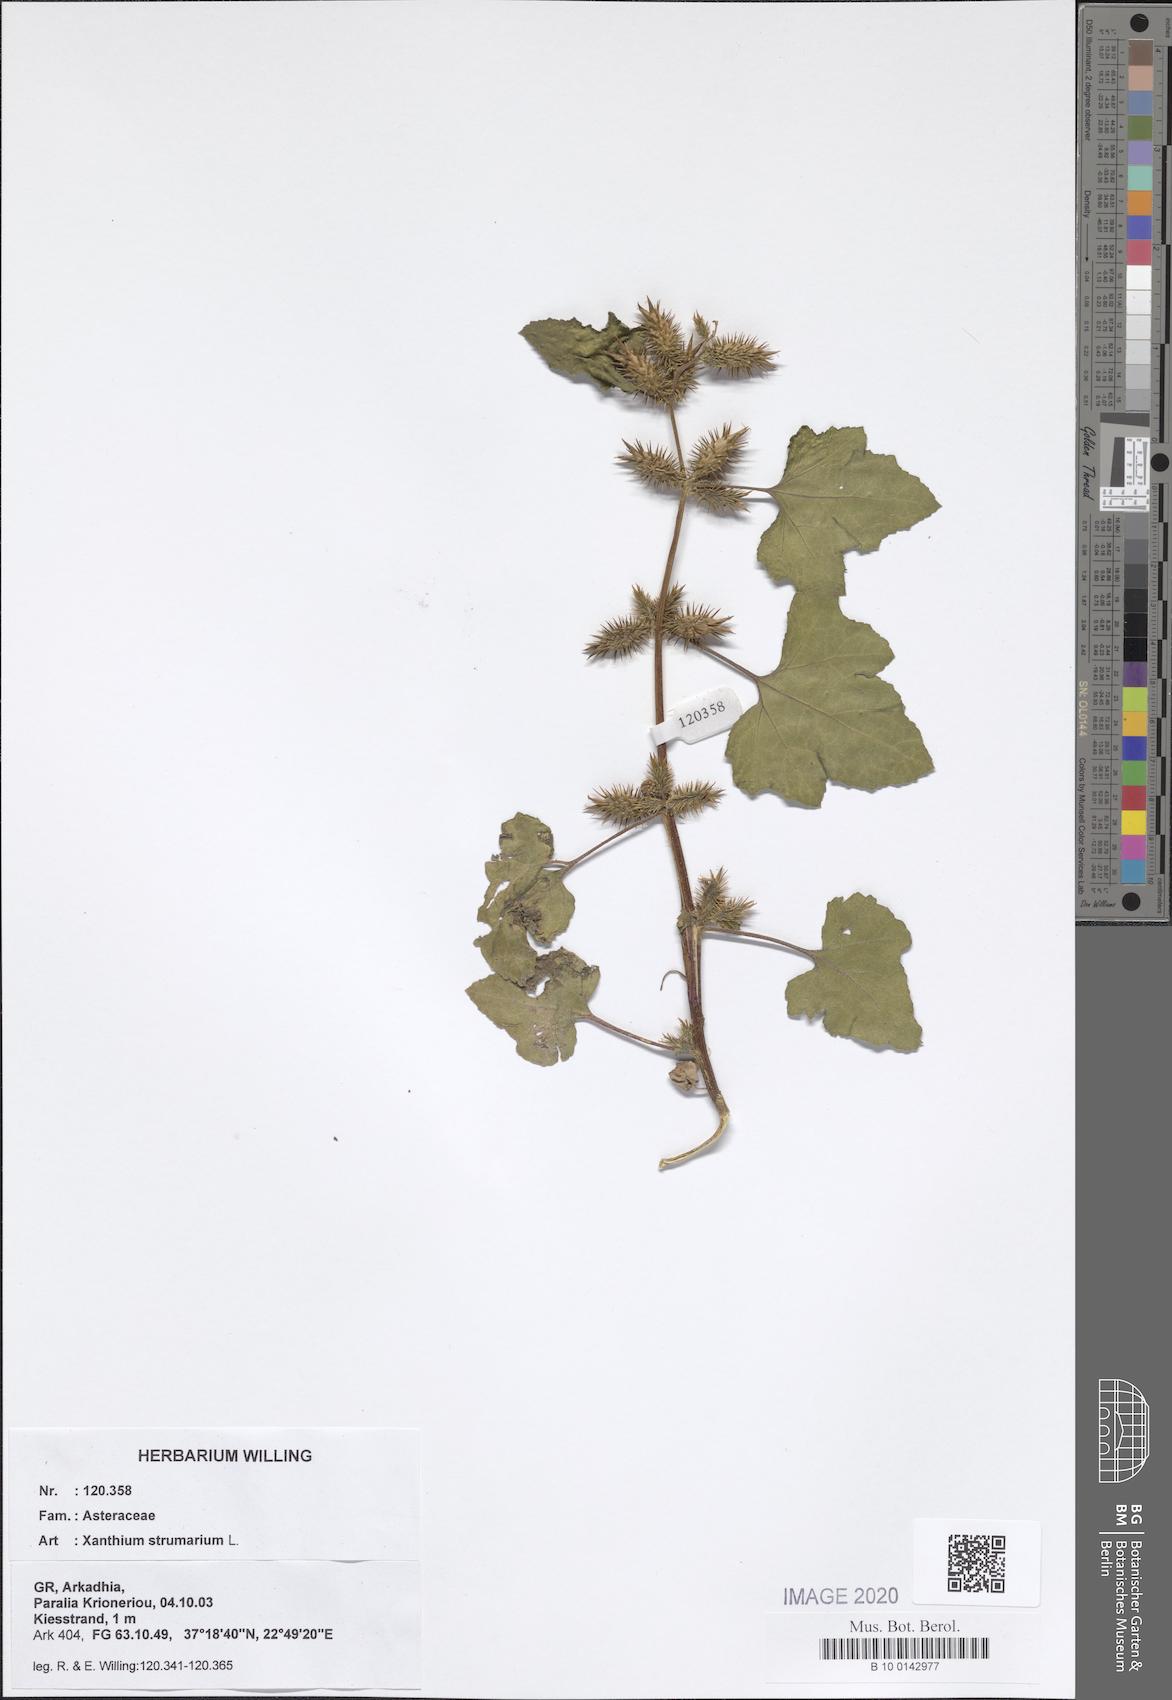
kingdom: Plantae
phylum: Tracheophyta
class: Magnoliopsida
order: Asterales
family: Asteraceae
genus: Xanthium
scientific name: Xanthium strumarium
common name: Rough cocklebur
